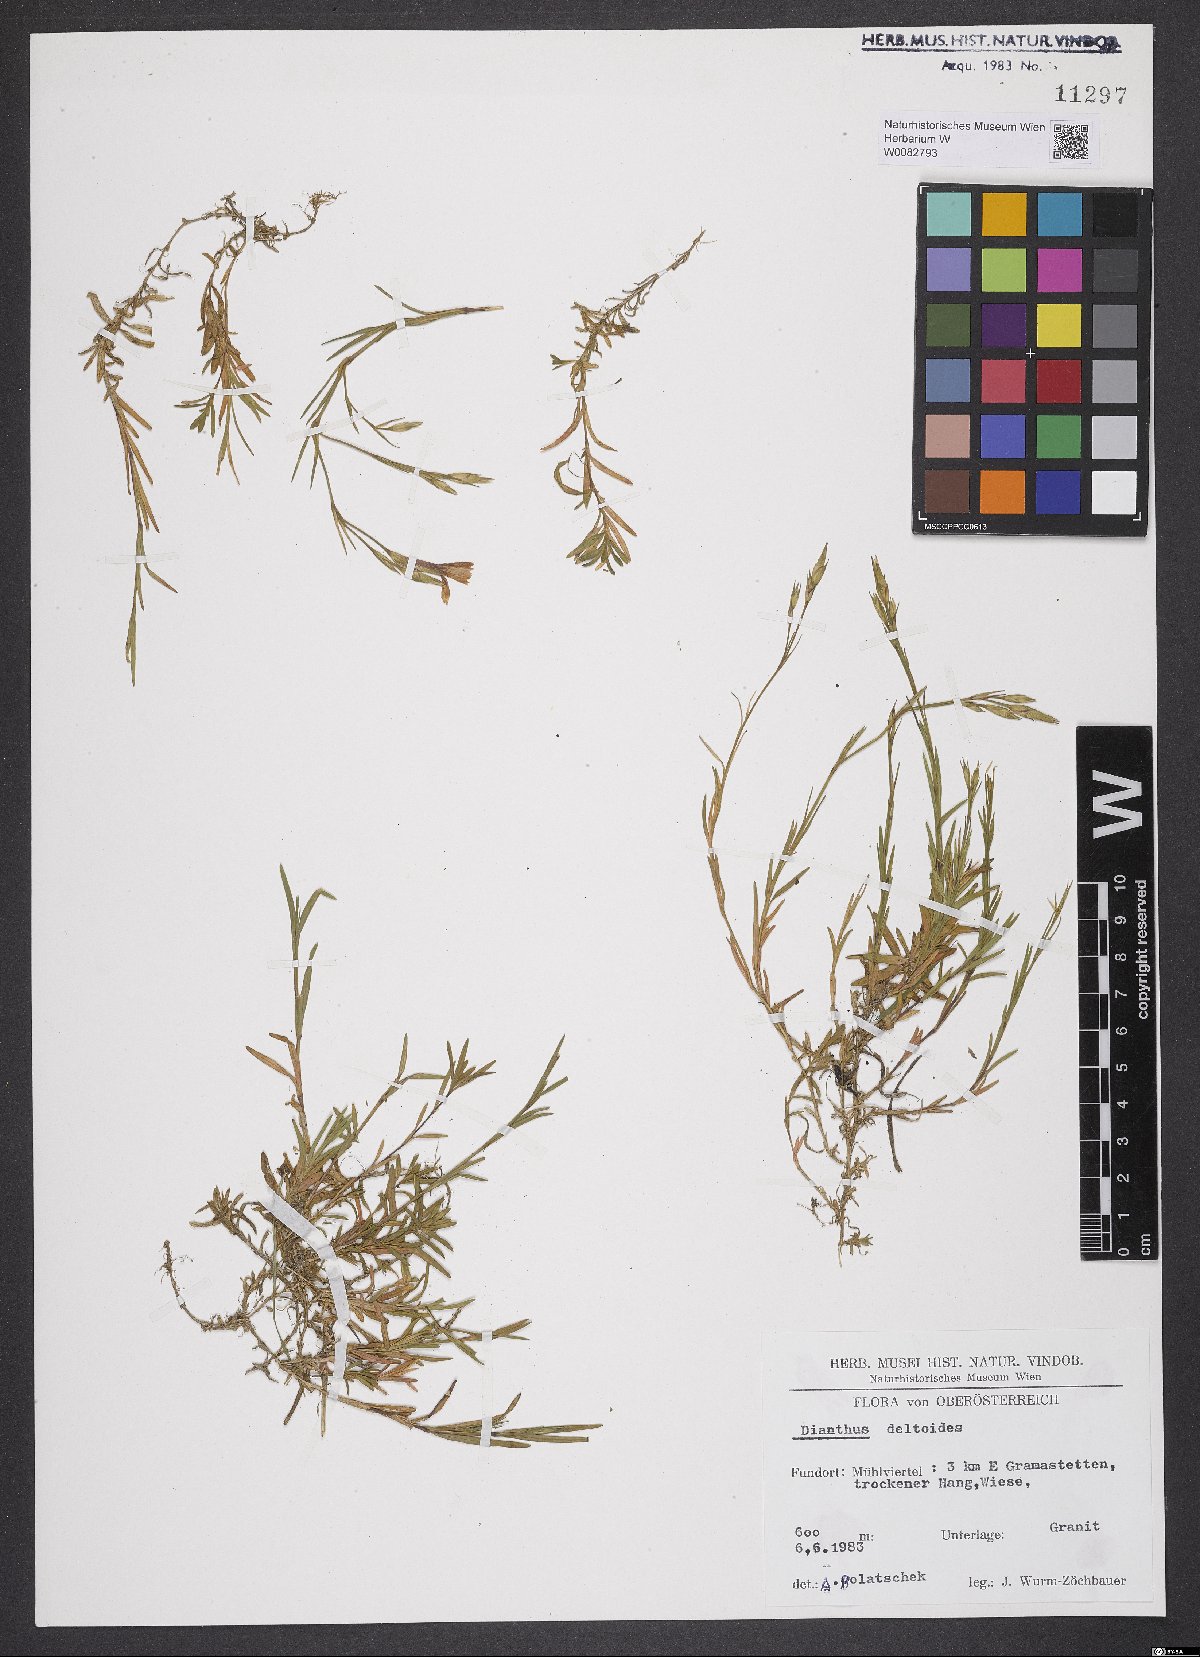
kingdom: Plantae
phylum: Tracheophyta
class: Magnoliopsida
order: Caryophyllales
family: Caryophyllaceae
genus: Dianthus
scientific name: Dianthus deltoides
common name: Maiden pink
